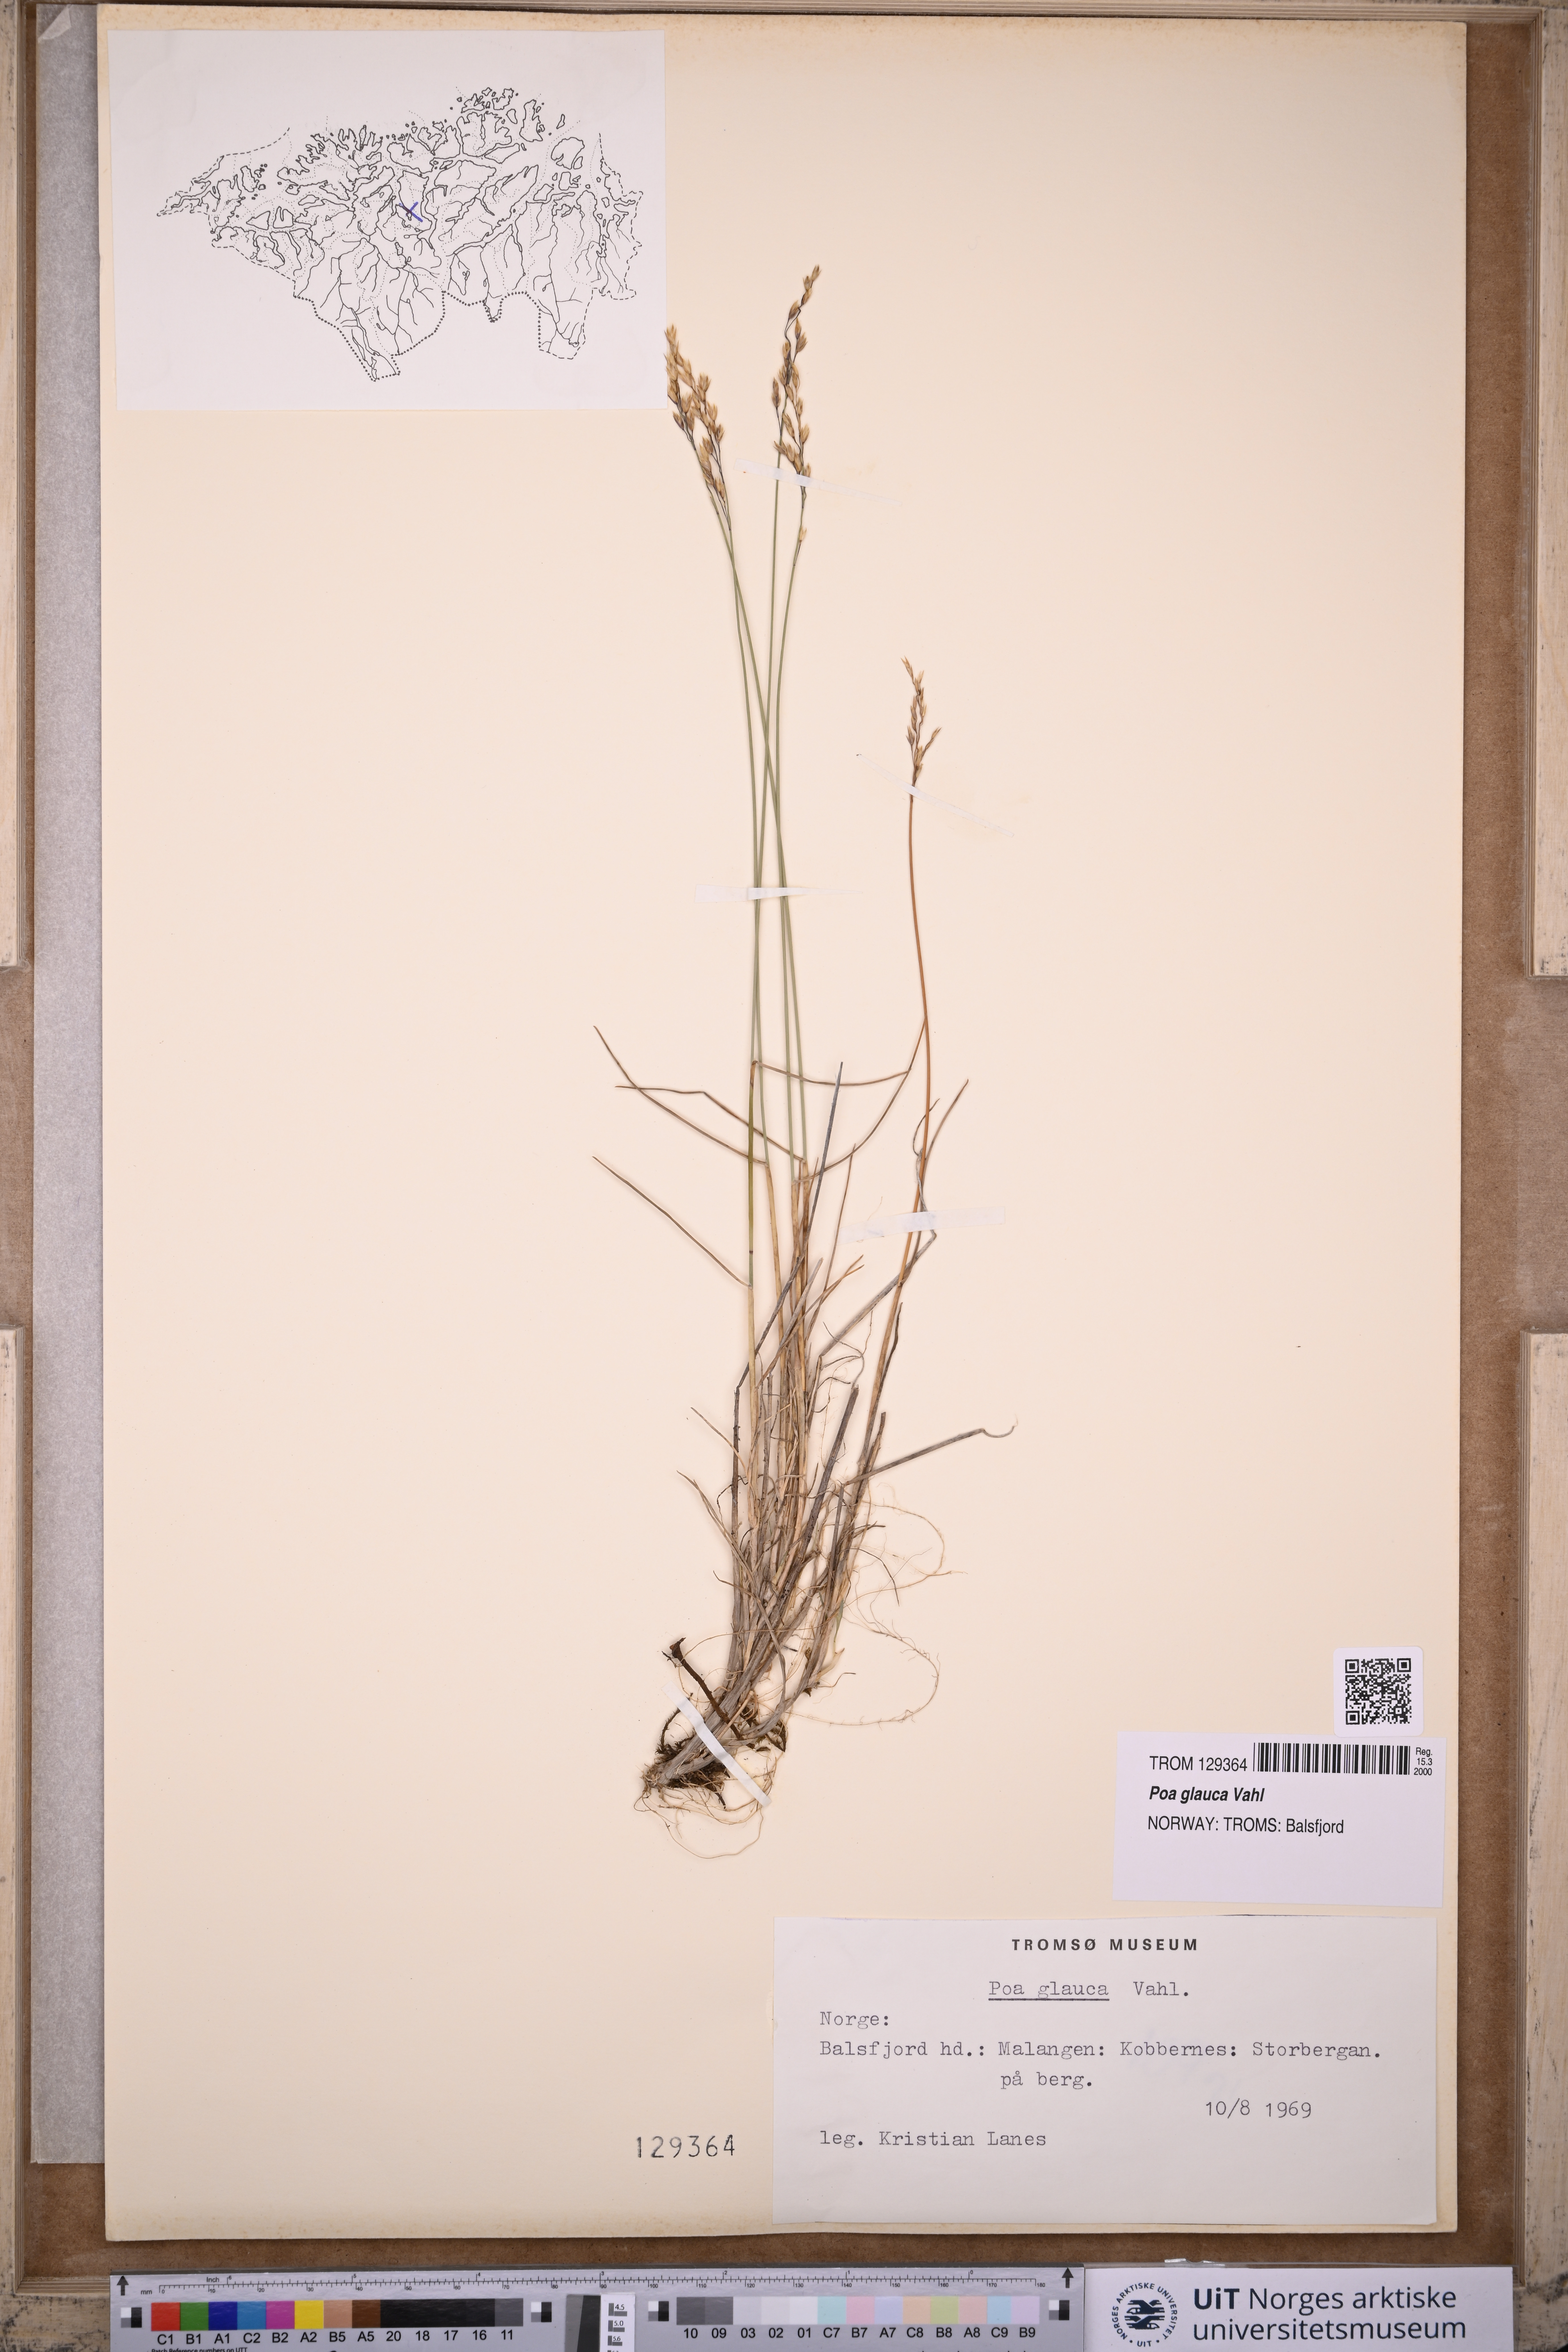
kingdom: Plantae
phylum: Tracheophyta
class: Liliopsida
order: Poales
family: Poaceae
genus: Poa
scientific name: Poa glauca
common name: Glaucous bluegrass
